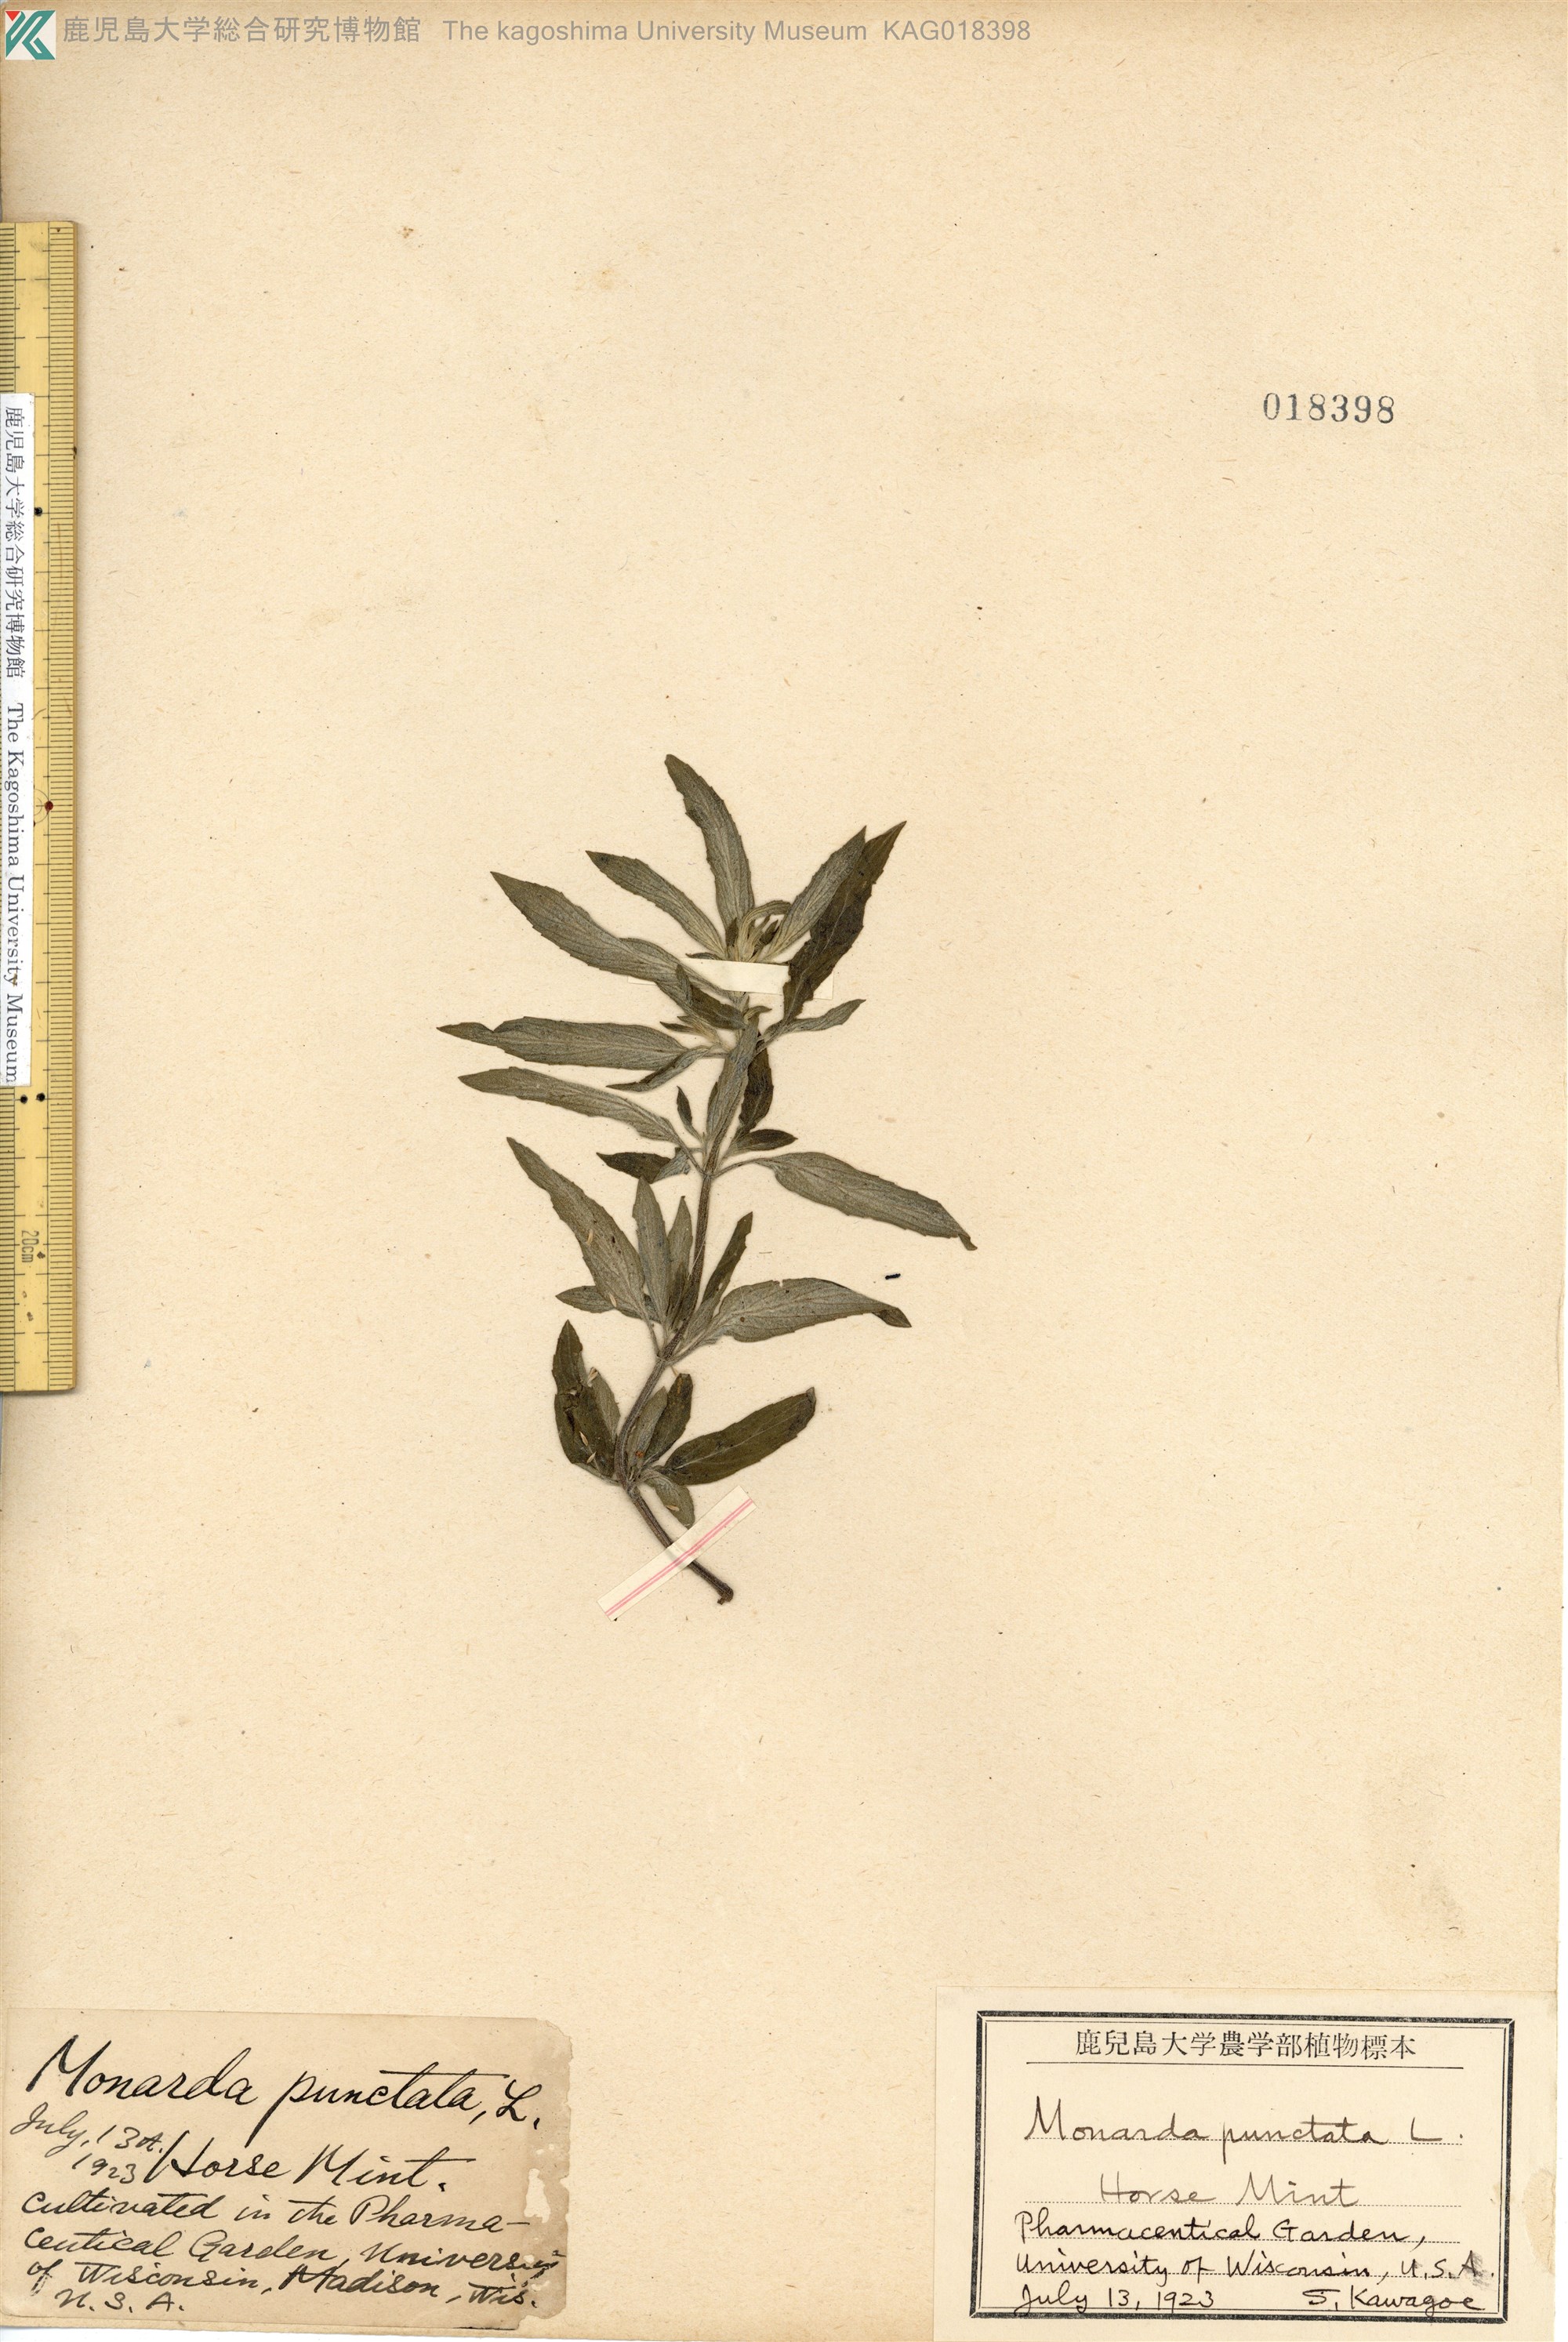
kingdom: Plantae
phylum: Tracheophyta
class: Magnoliopsida
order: Lamiales
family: Lamiaceae
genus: Monarda
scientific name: Monarda punctata
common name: Dotted monarda
